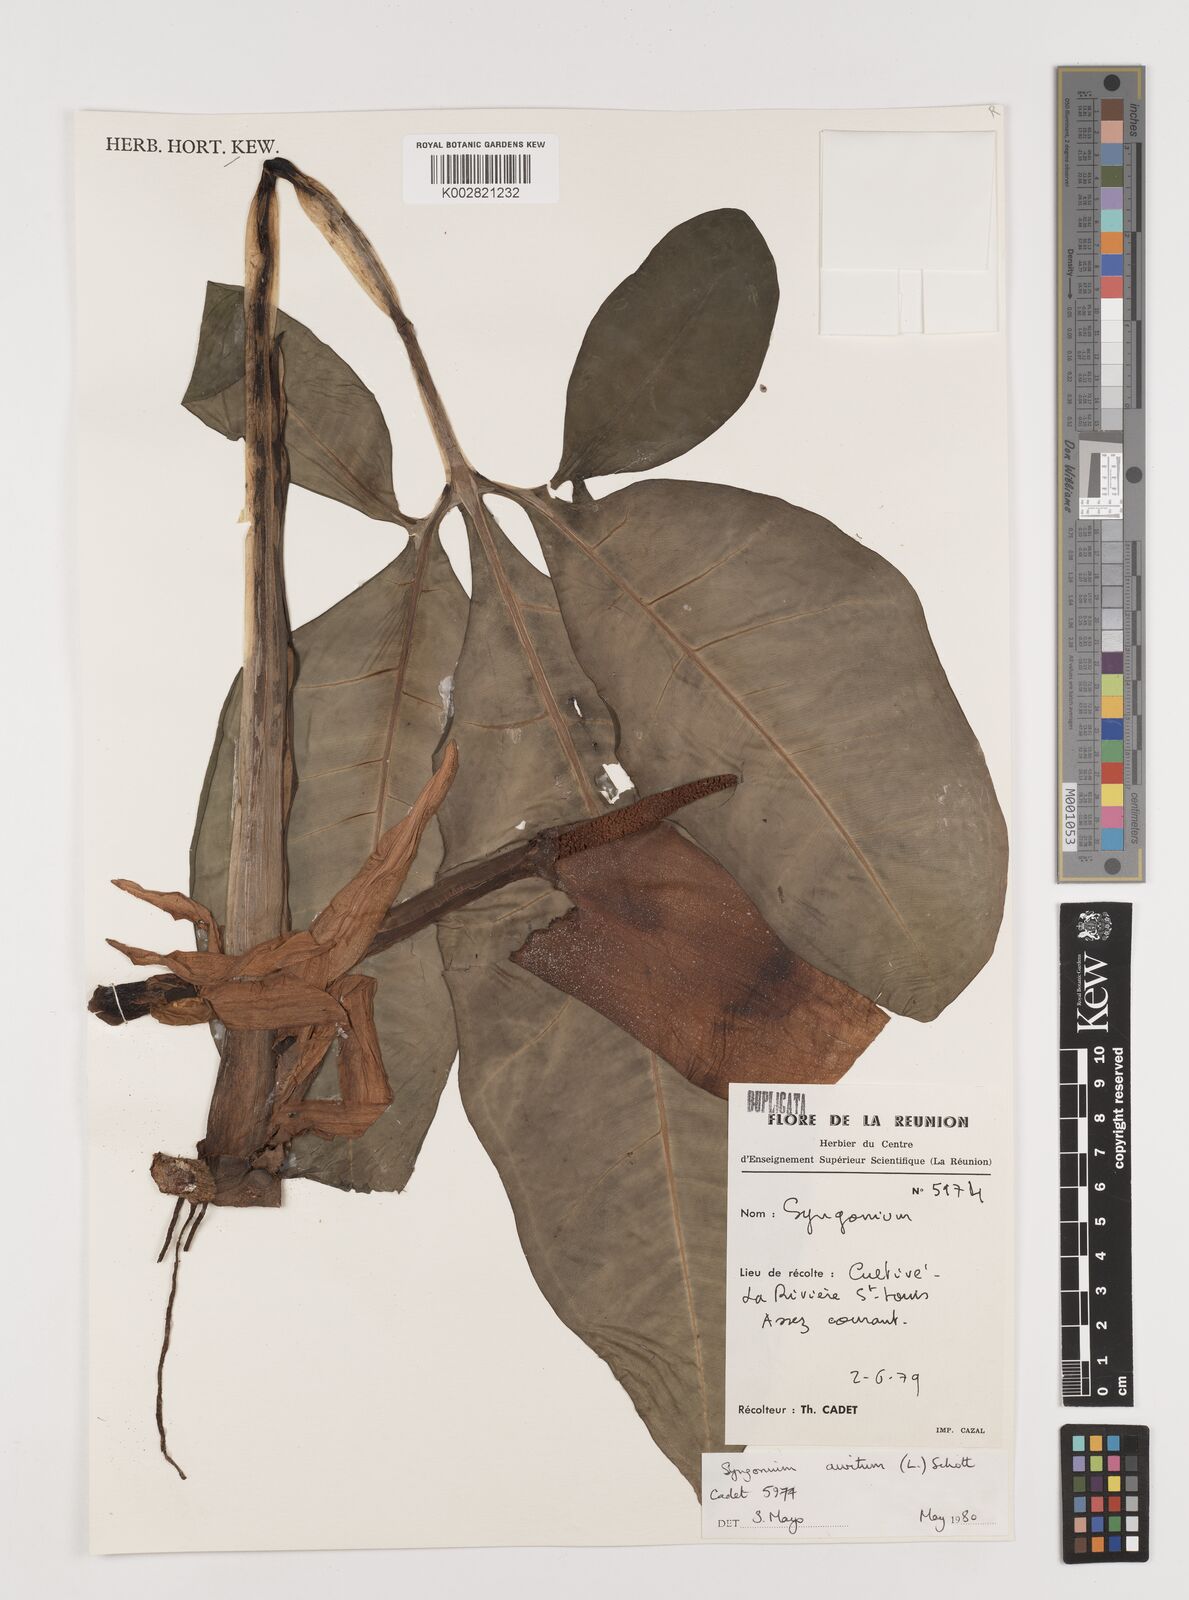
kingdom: Plantae
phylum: Tracheophyta
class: Liliopsida
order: Alismatales
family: Araceae
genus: Syngonium
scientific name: Syngonium auritum
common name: Five-fingers
